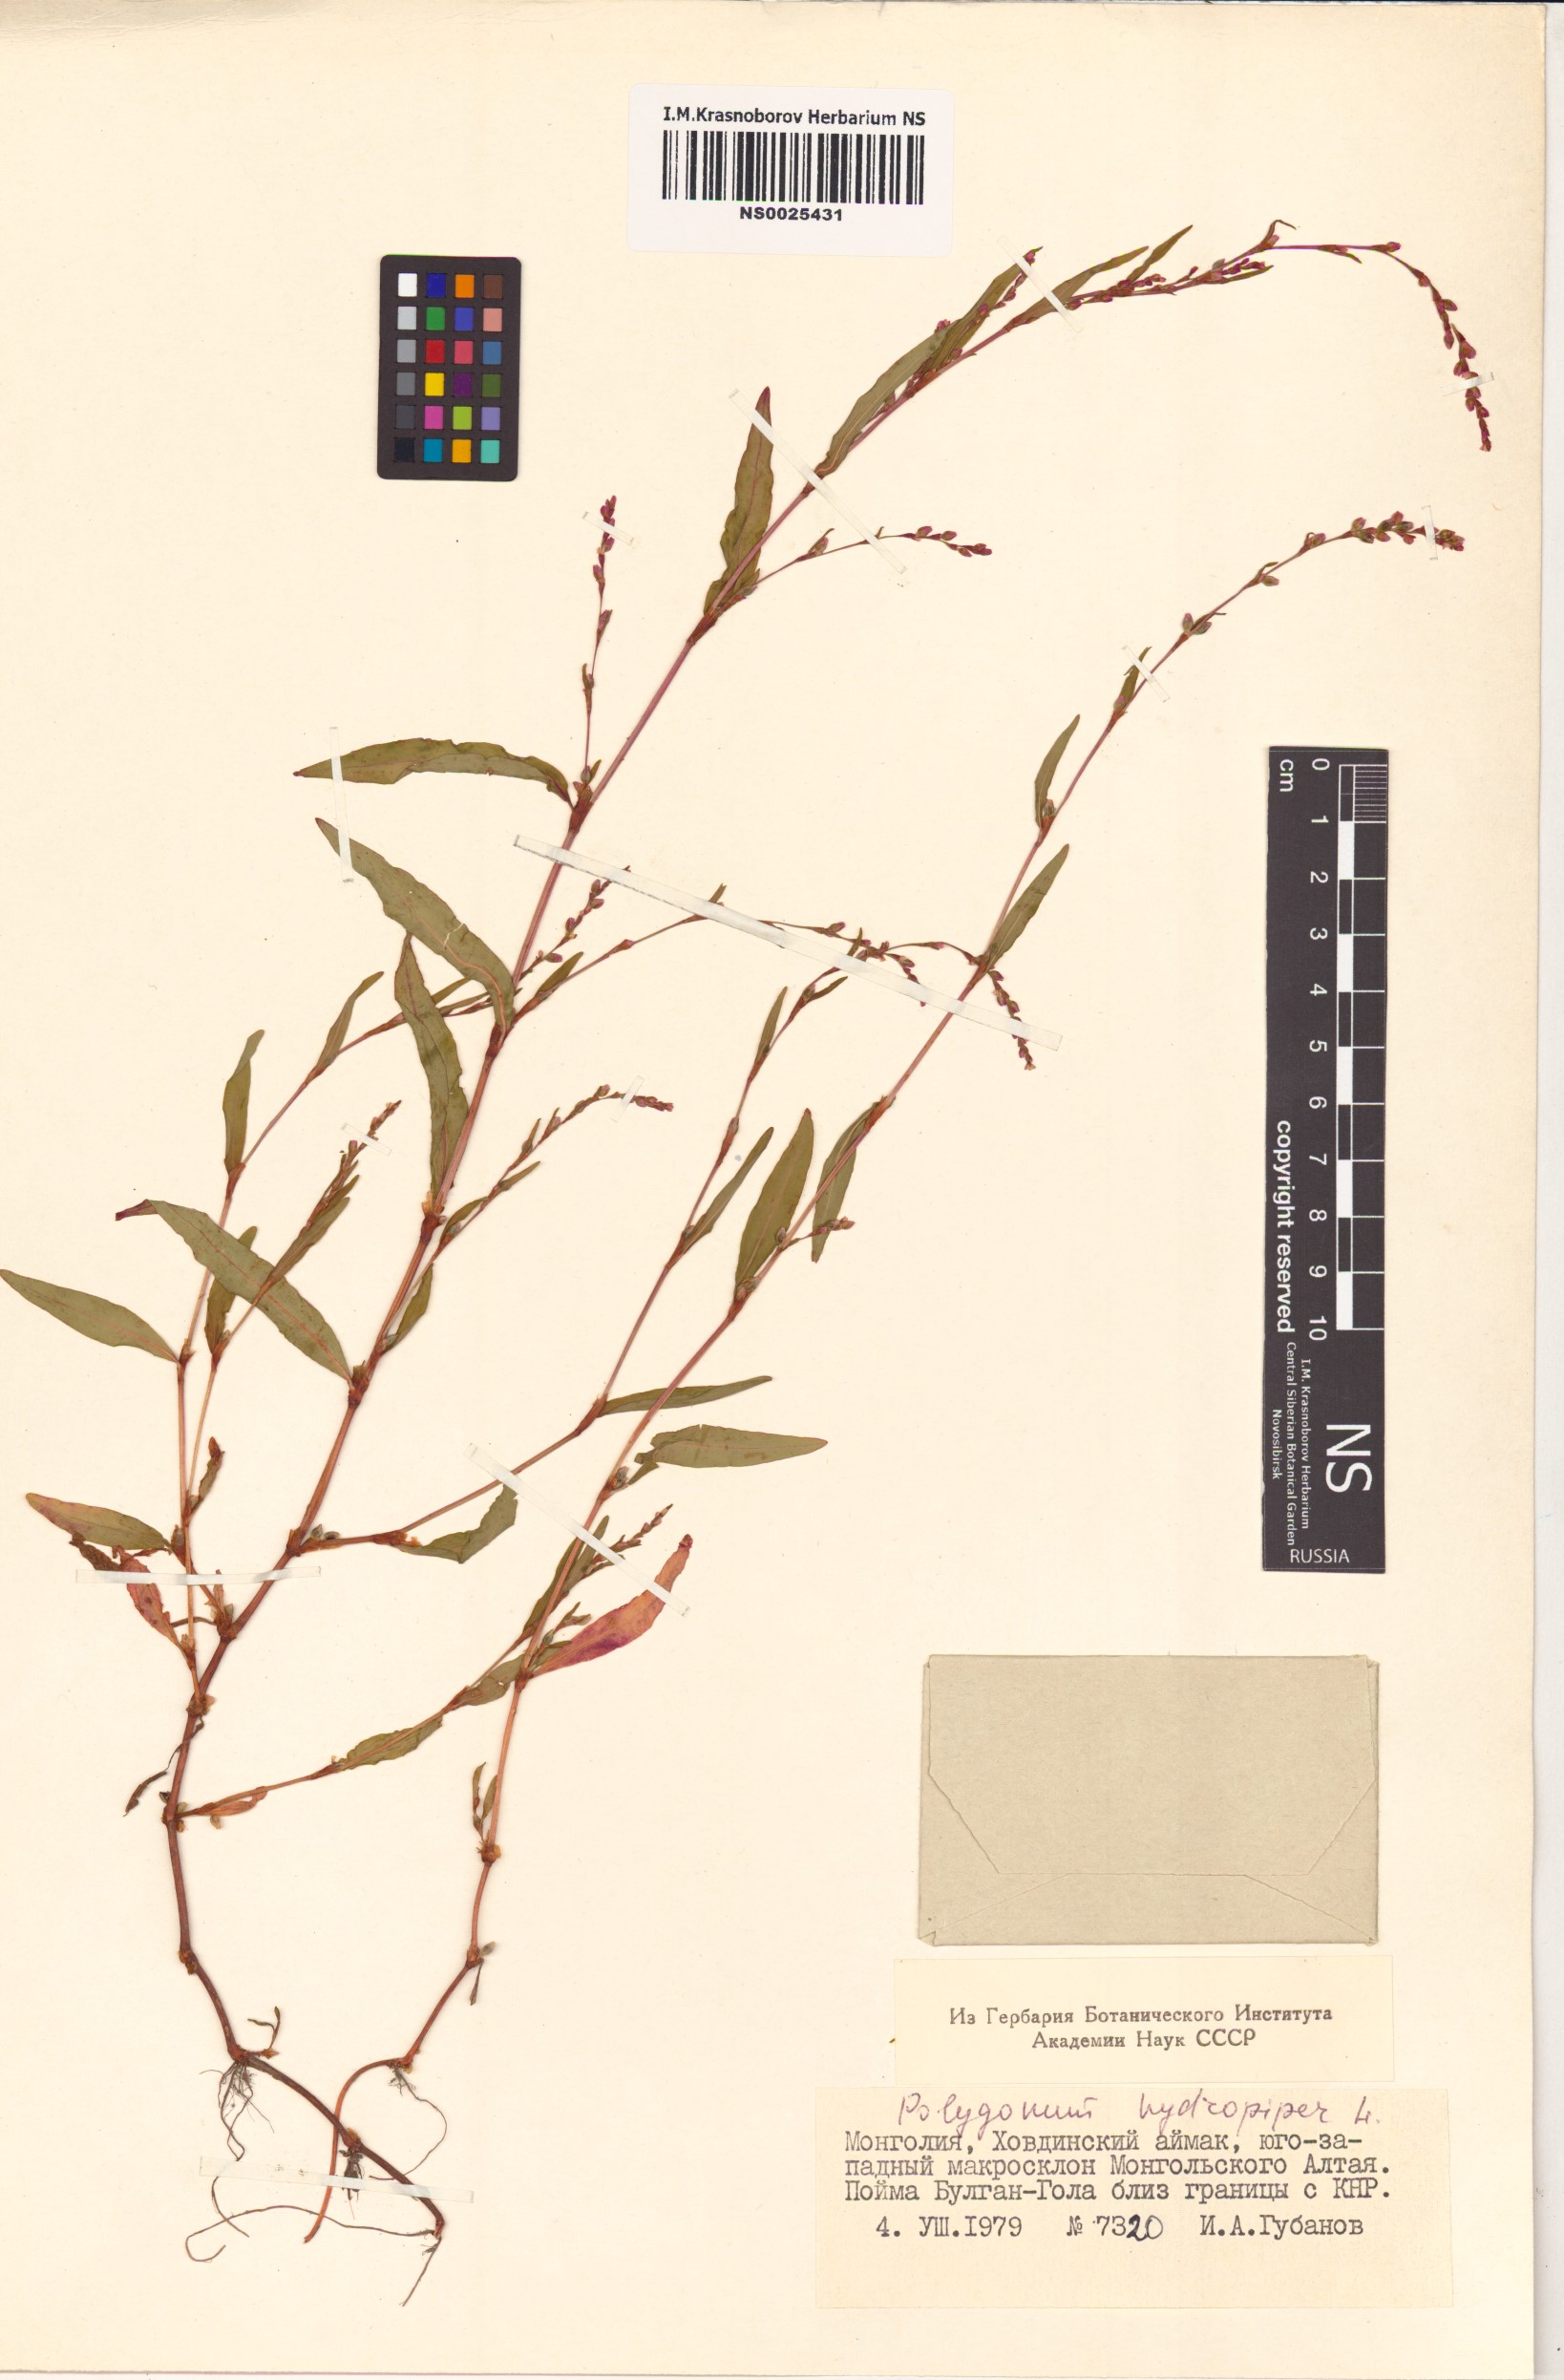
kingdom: Plantae
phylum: Tracheophyta
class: Magnoliopsida
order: Caryophyllales
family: Polygonaceae
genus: Persicaria
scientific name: Persicaria hydropiper
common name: Water-pepper
